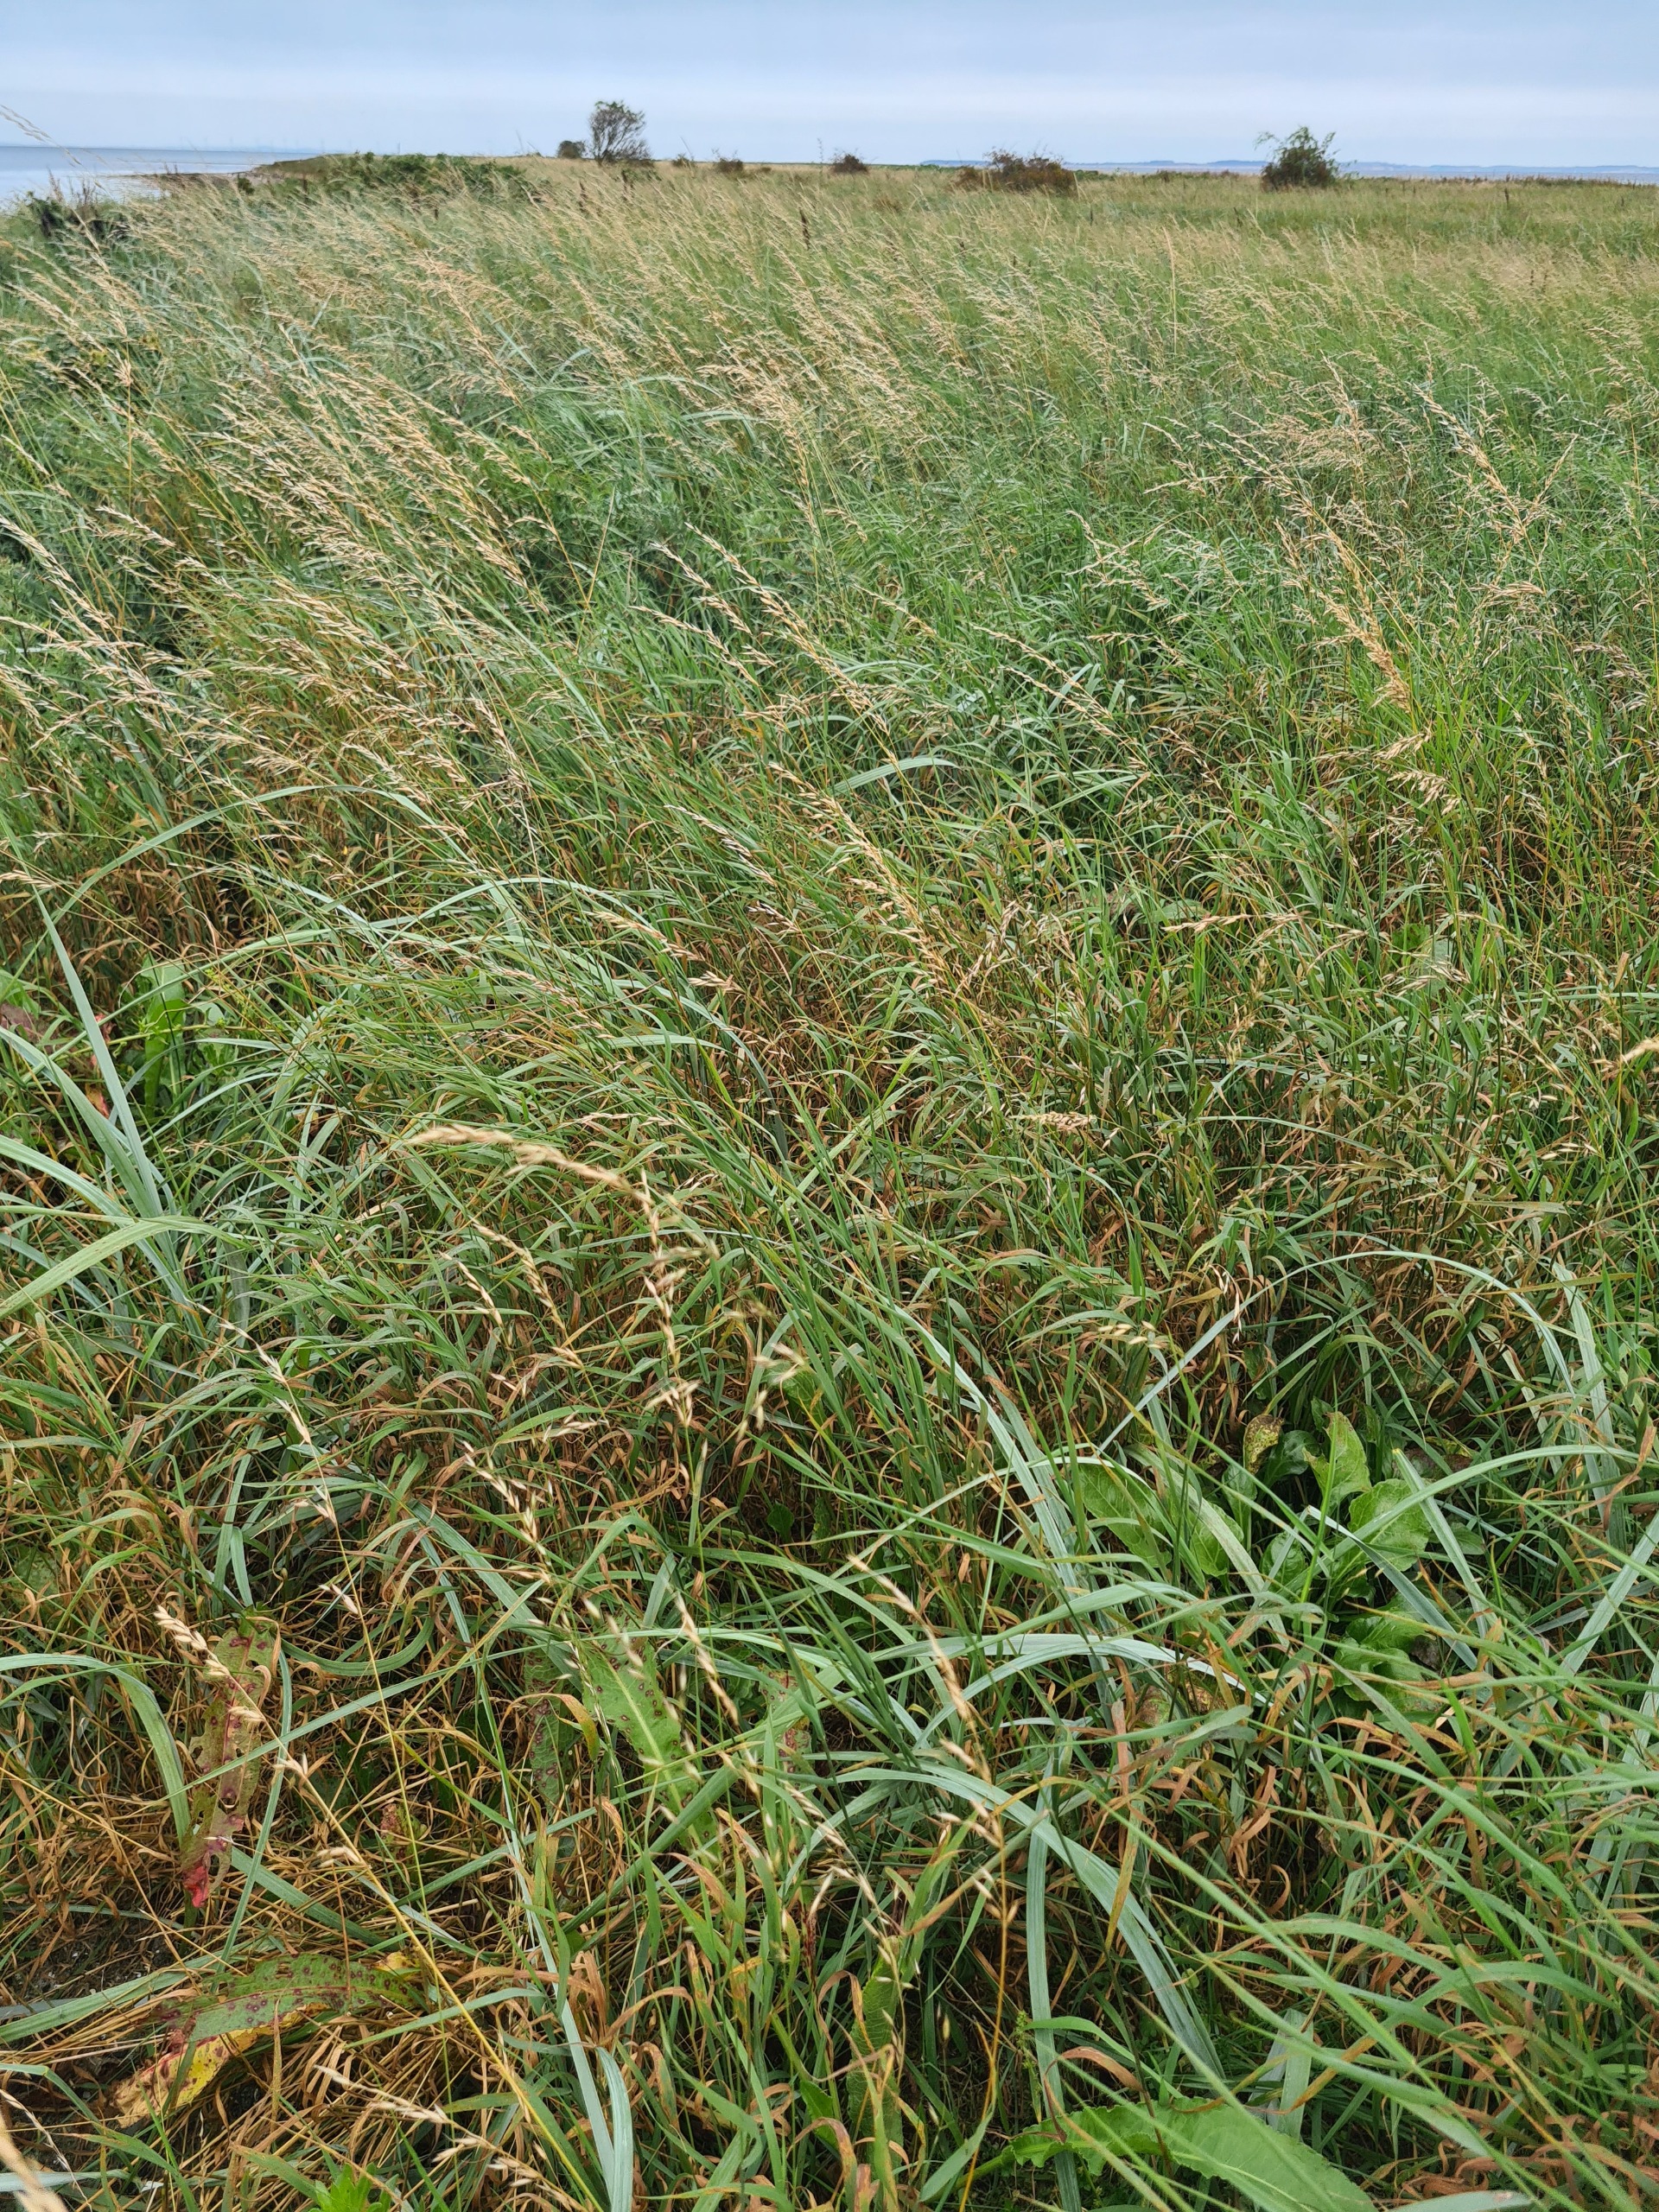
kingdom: Plantae
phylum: Tracheophyta
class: Liliopsida
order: Poales
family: Poaceae
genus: Arrhenatherum
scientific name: Arrhenatherum elatius
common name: Draphavre
